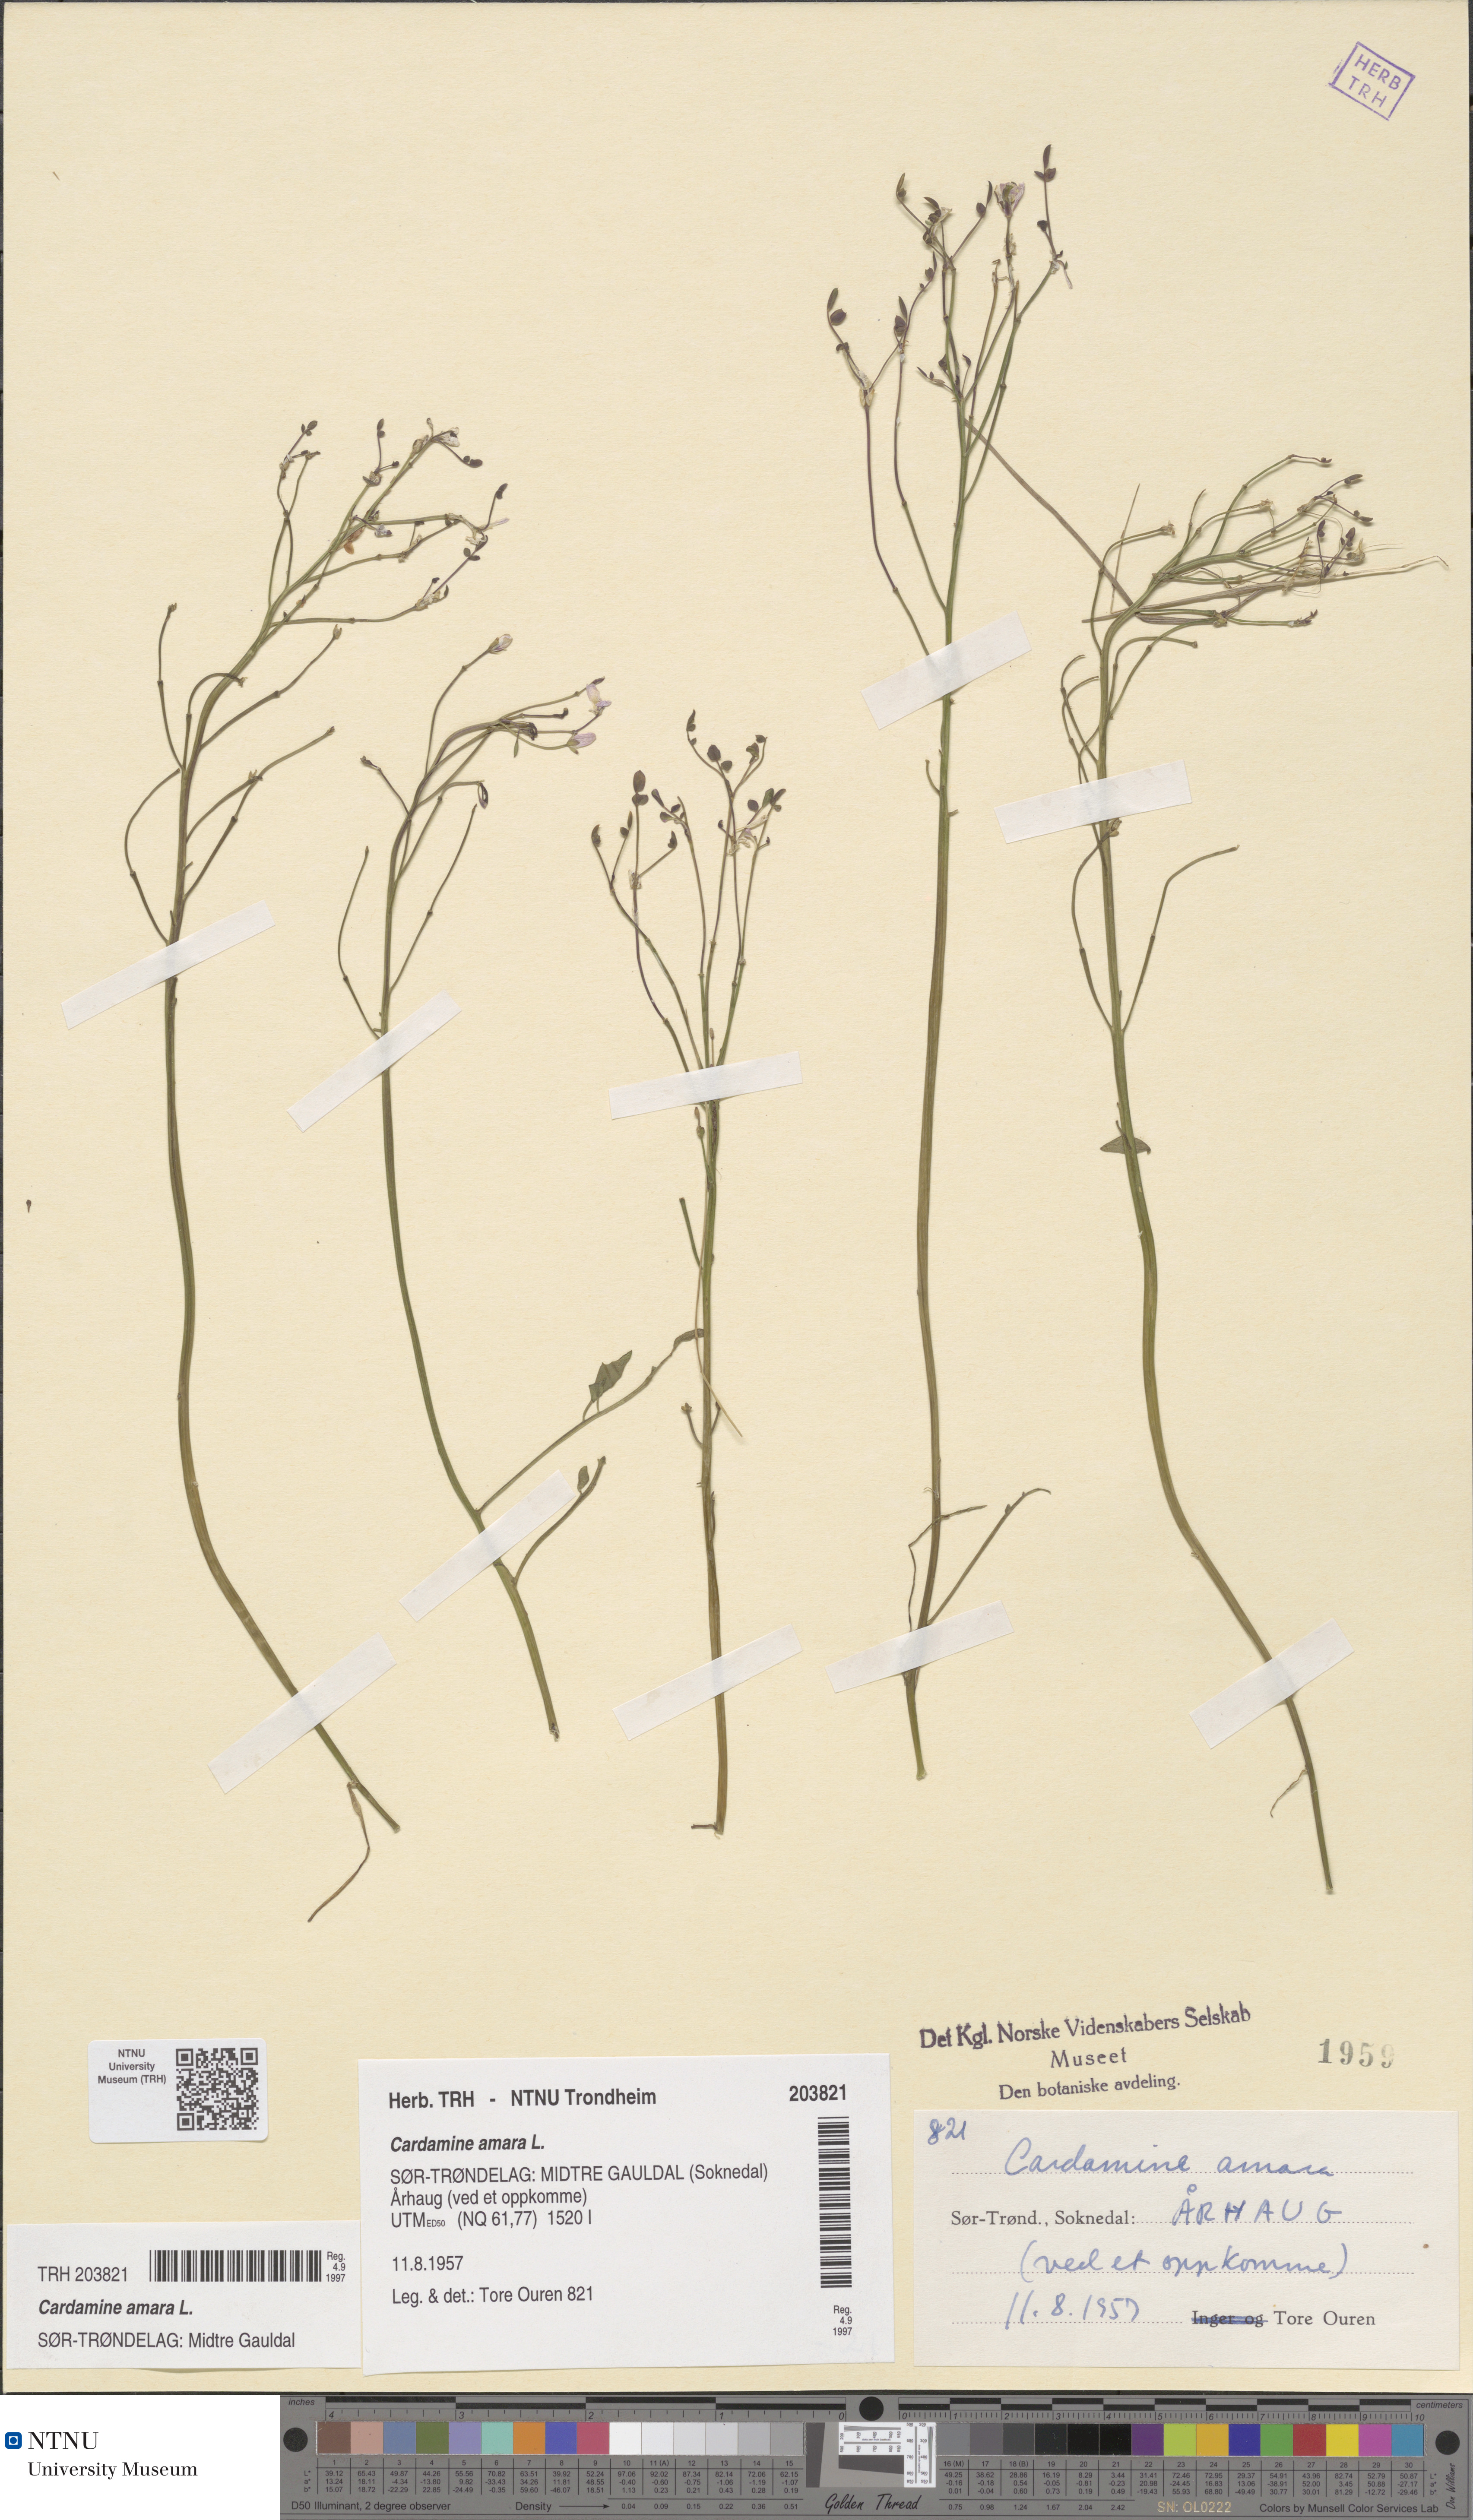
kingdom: Plantae
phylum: Tracheophyta
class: Magnoliopsida
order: Brassicales
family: Brassicaceae
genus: Cardamine
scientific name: Cardamine amara
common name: Large bitter-cress
